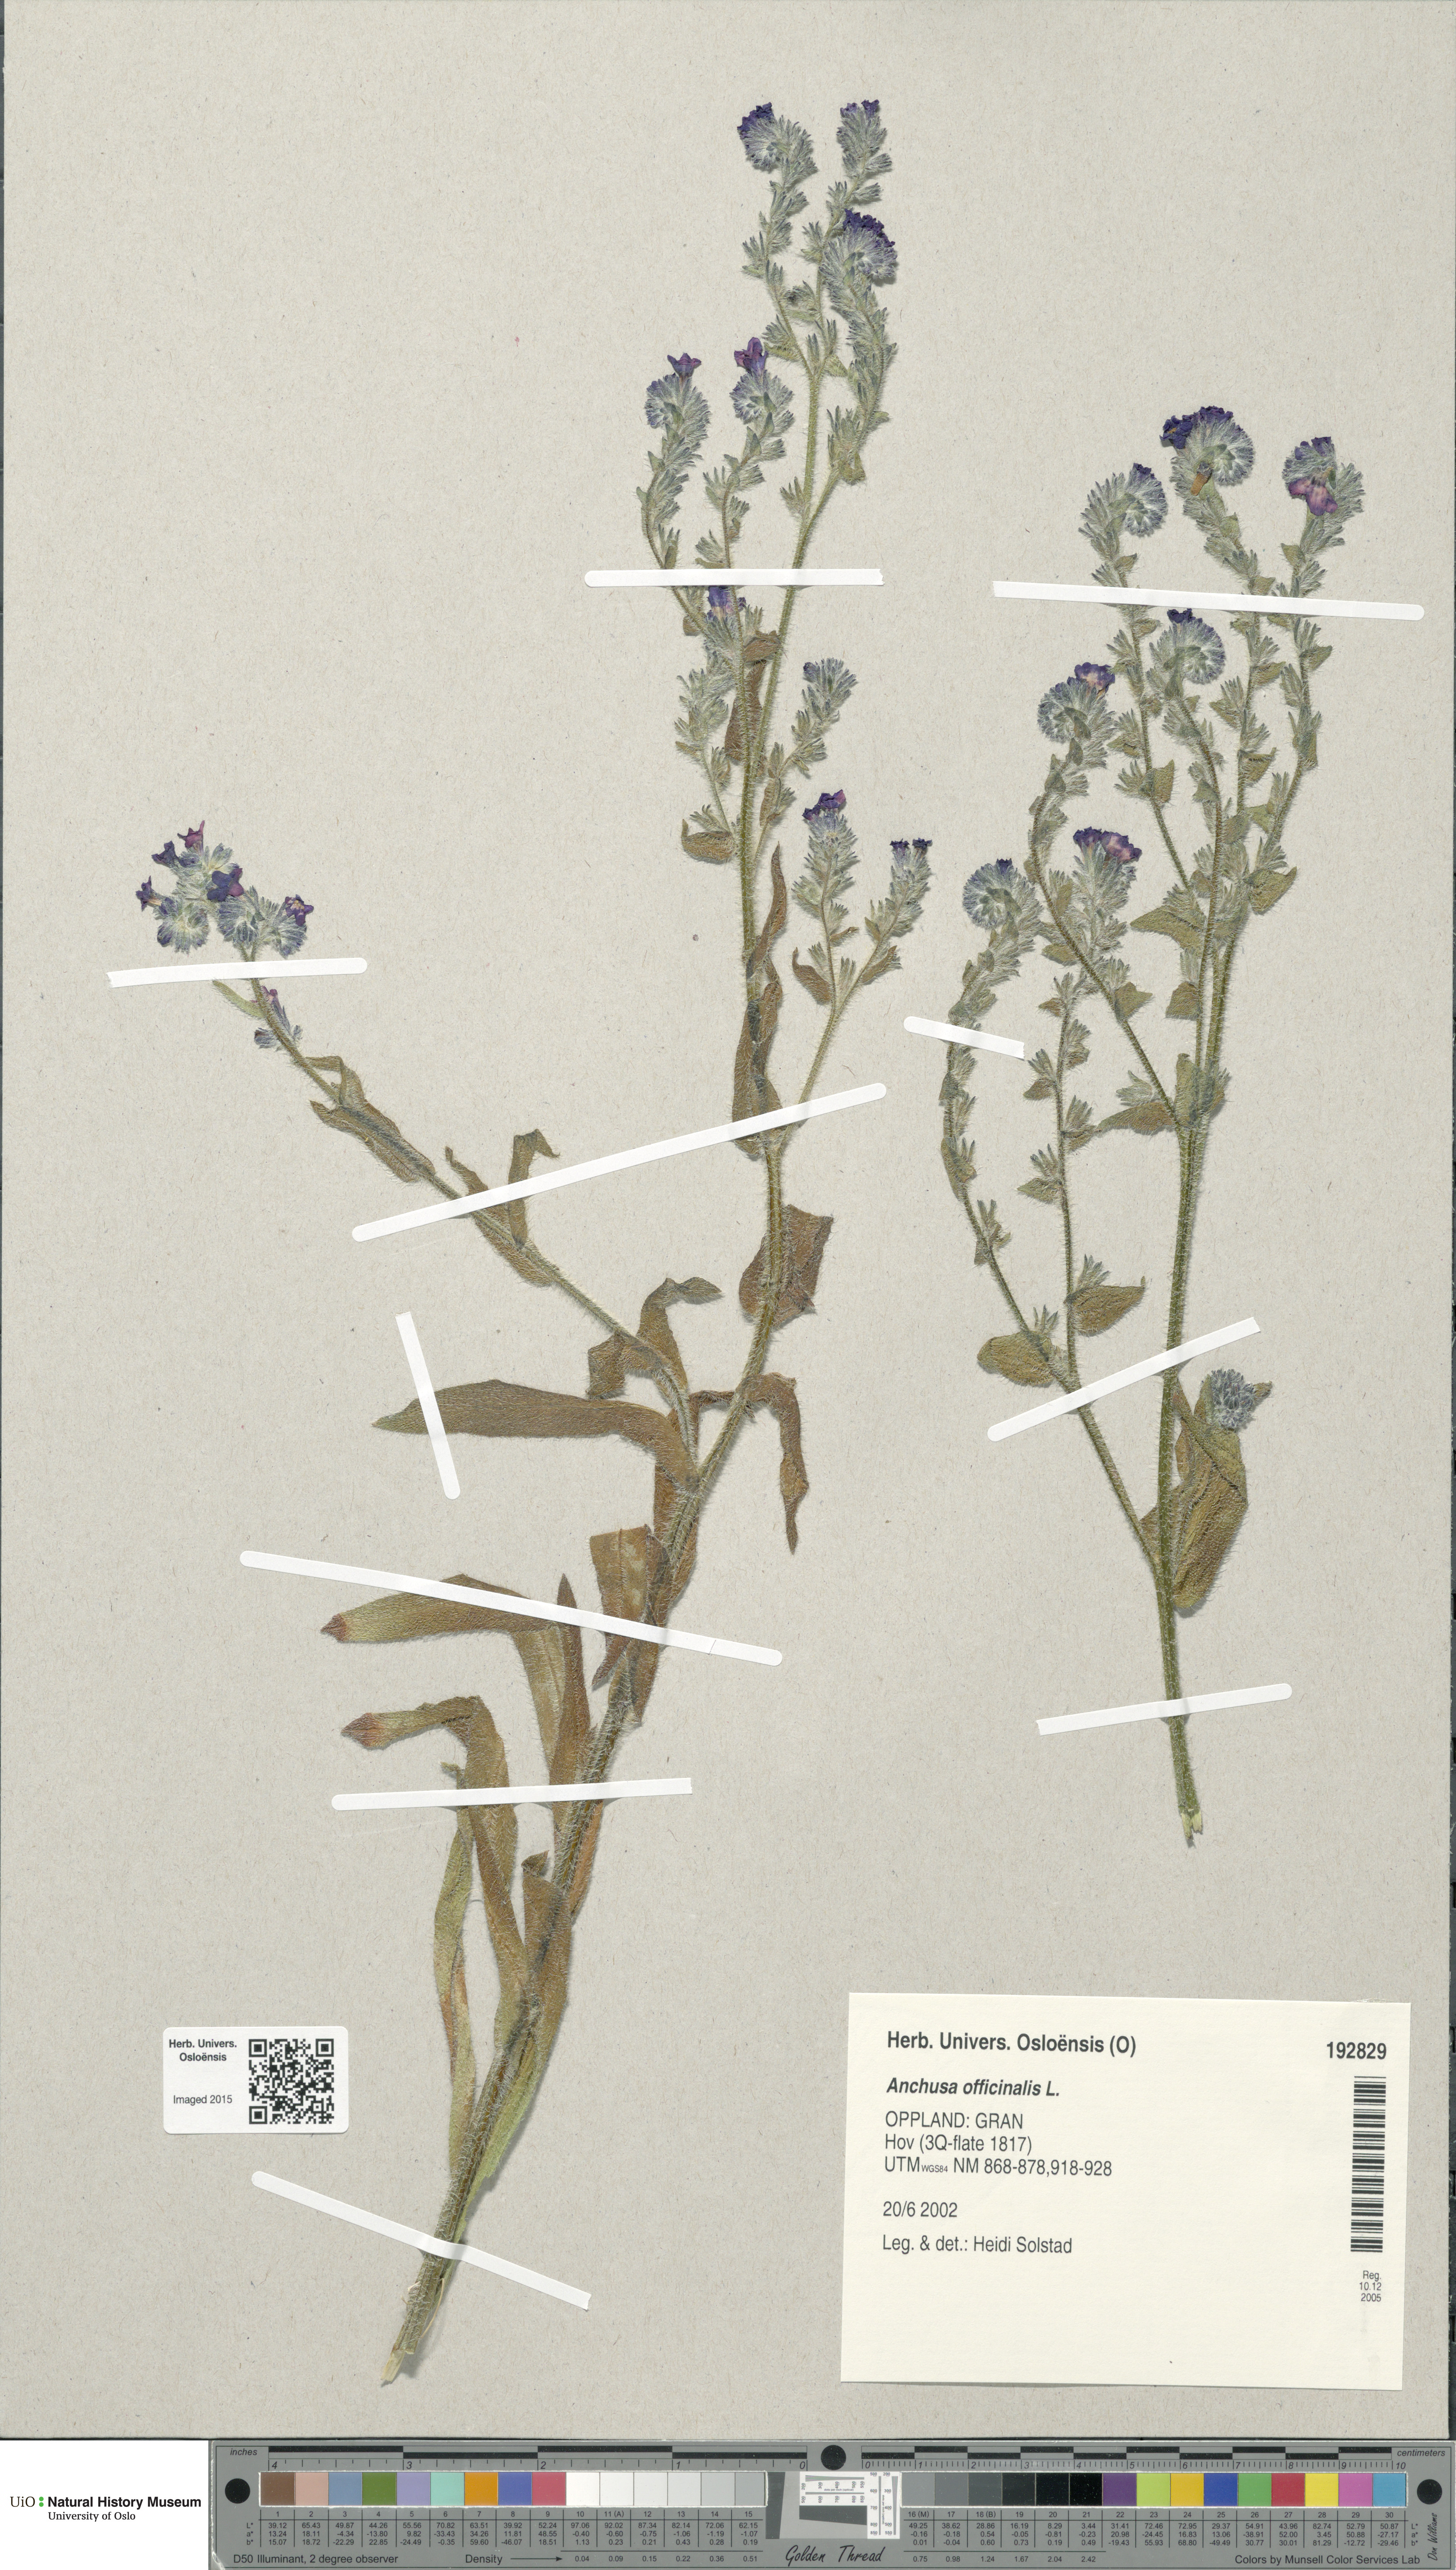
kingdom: Plantae
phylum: Tracheophyta
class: Magnoliopsida
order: Boraginales
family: Boraginaceae
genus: Anchusa
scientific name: Anchusa officinalis
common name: Alkanet
